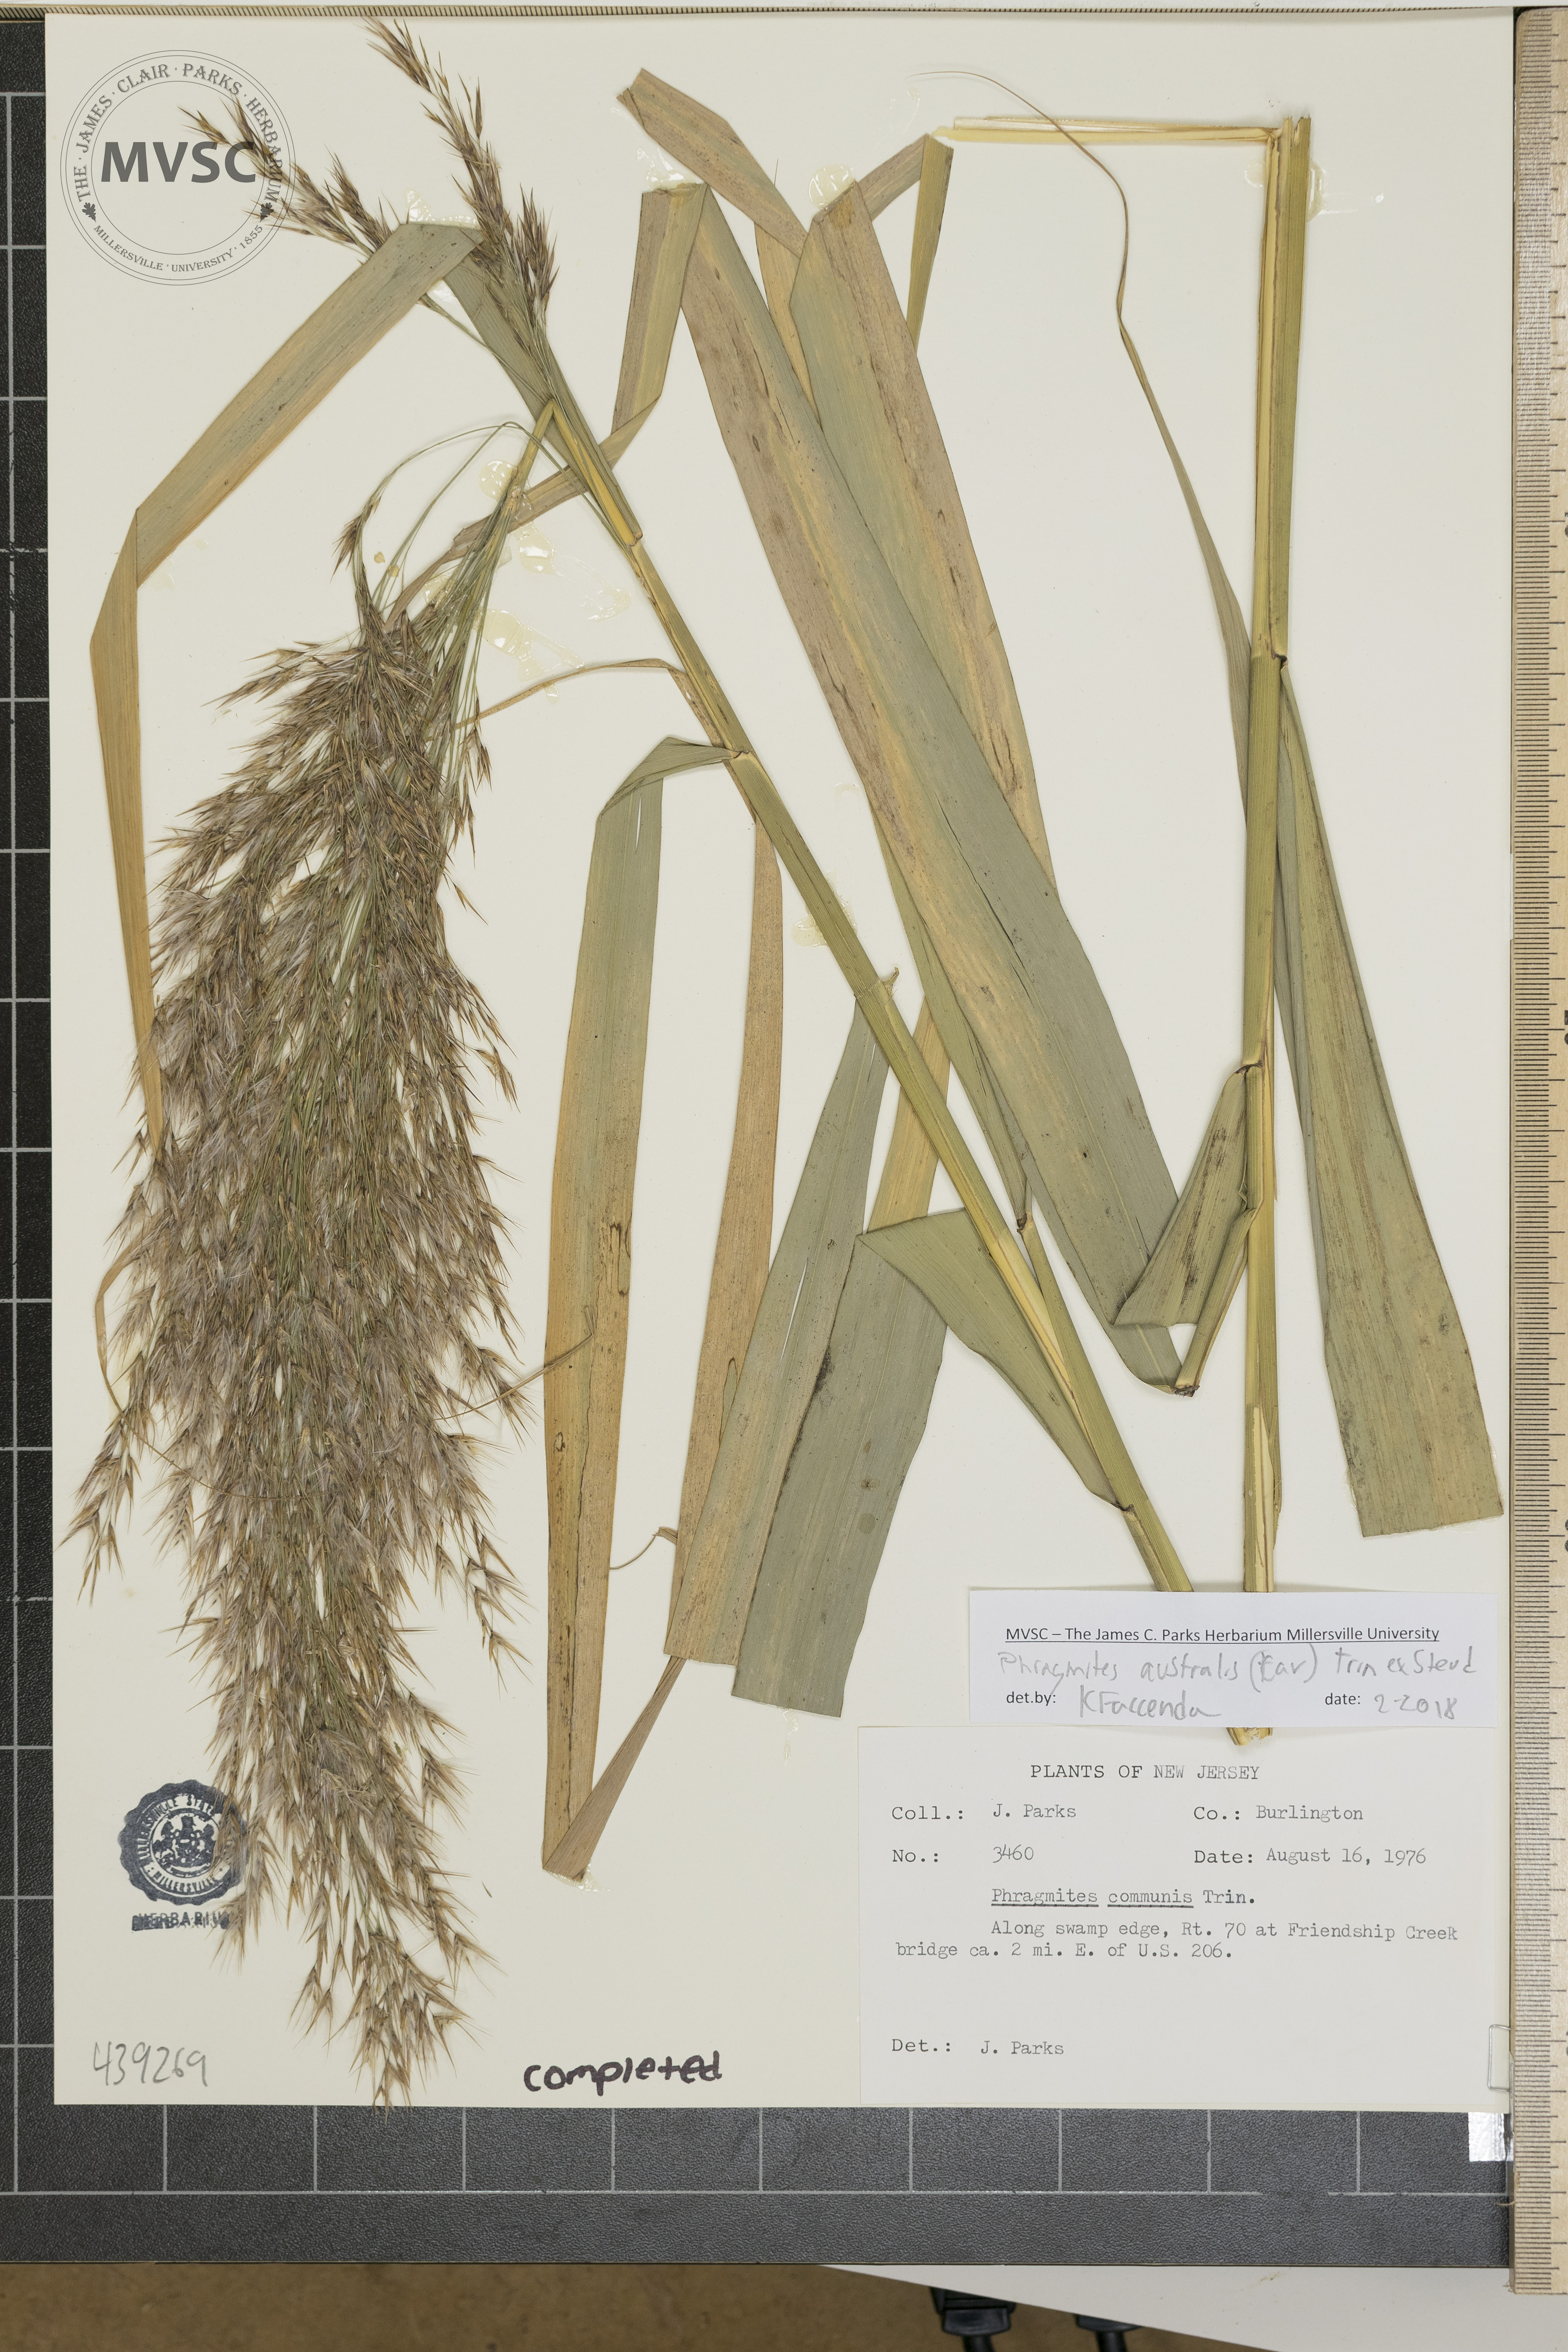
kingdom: Plantae
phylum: Tracheophyta
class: Liliopsida
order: Poales
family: Poaceae
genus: Phragmites
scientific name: Phragmites australis
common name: Reed
